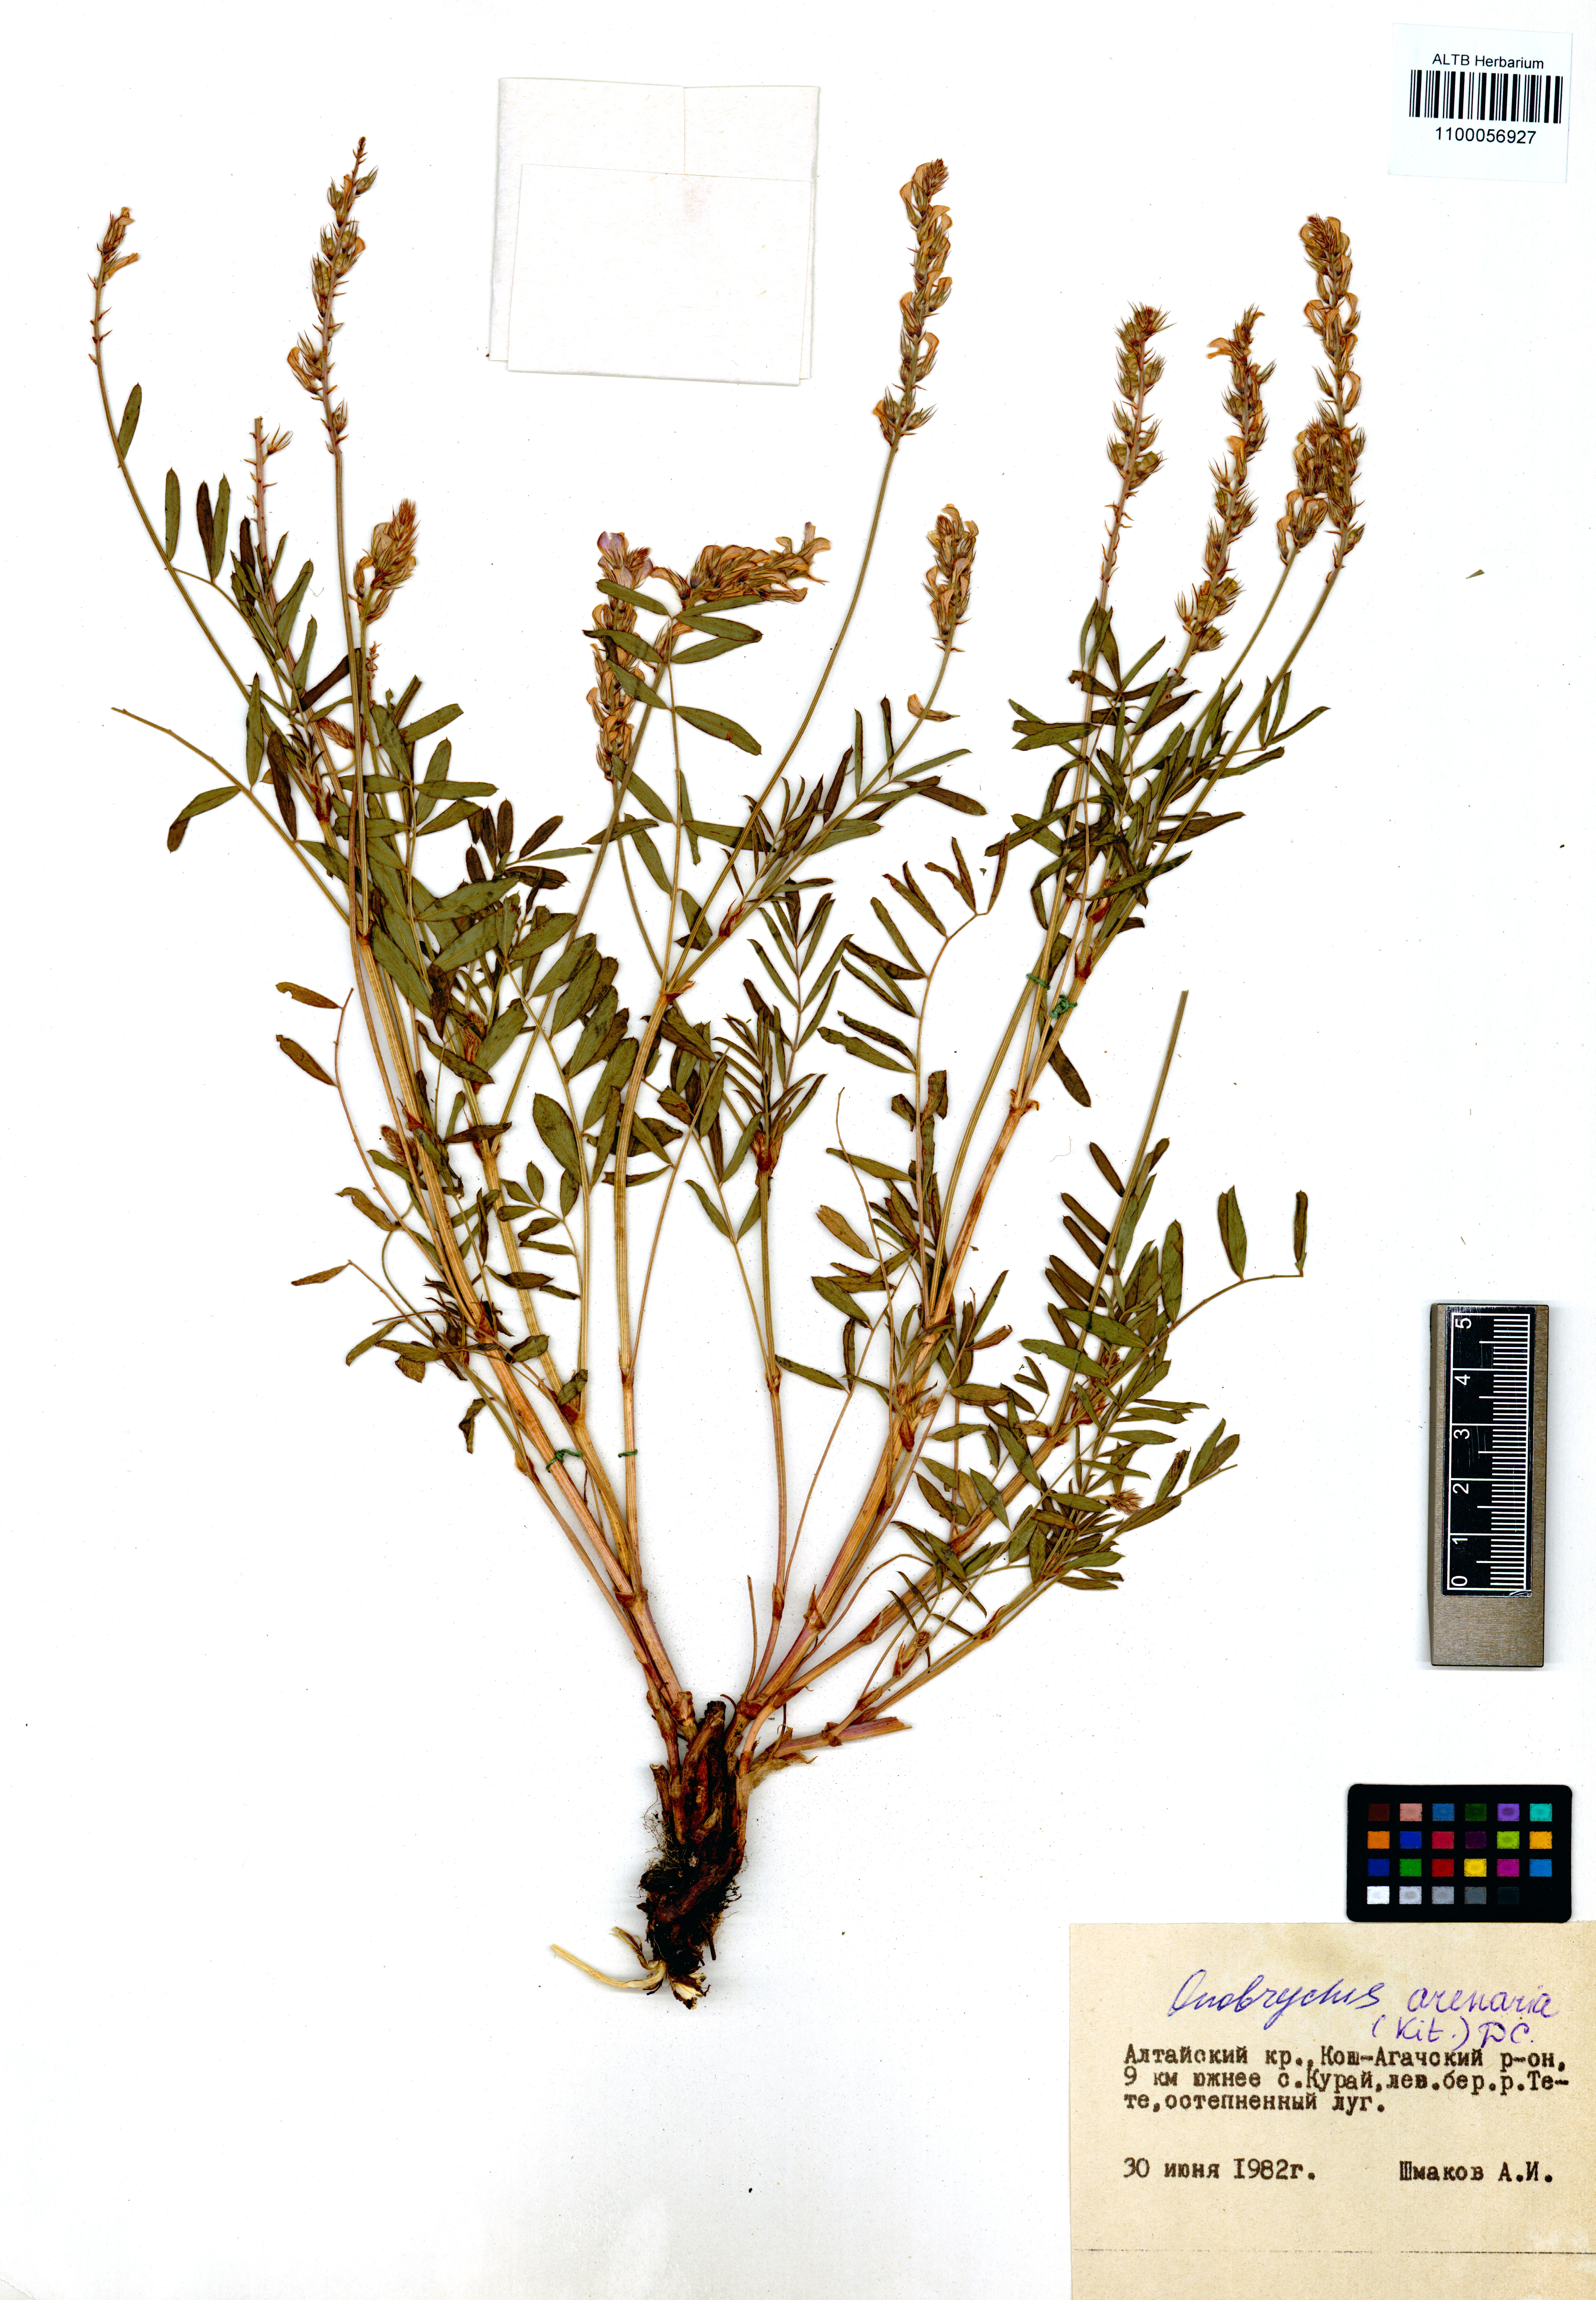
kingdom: Plantae
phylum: Tracheophyta
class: Magnoliopsida
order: Fabales
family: Fabaceae
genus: Onobrychis
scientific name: Onobrychis arenaria
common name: Sand esparcet
